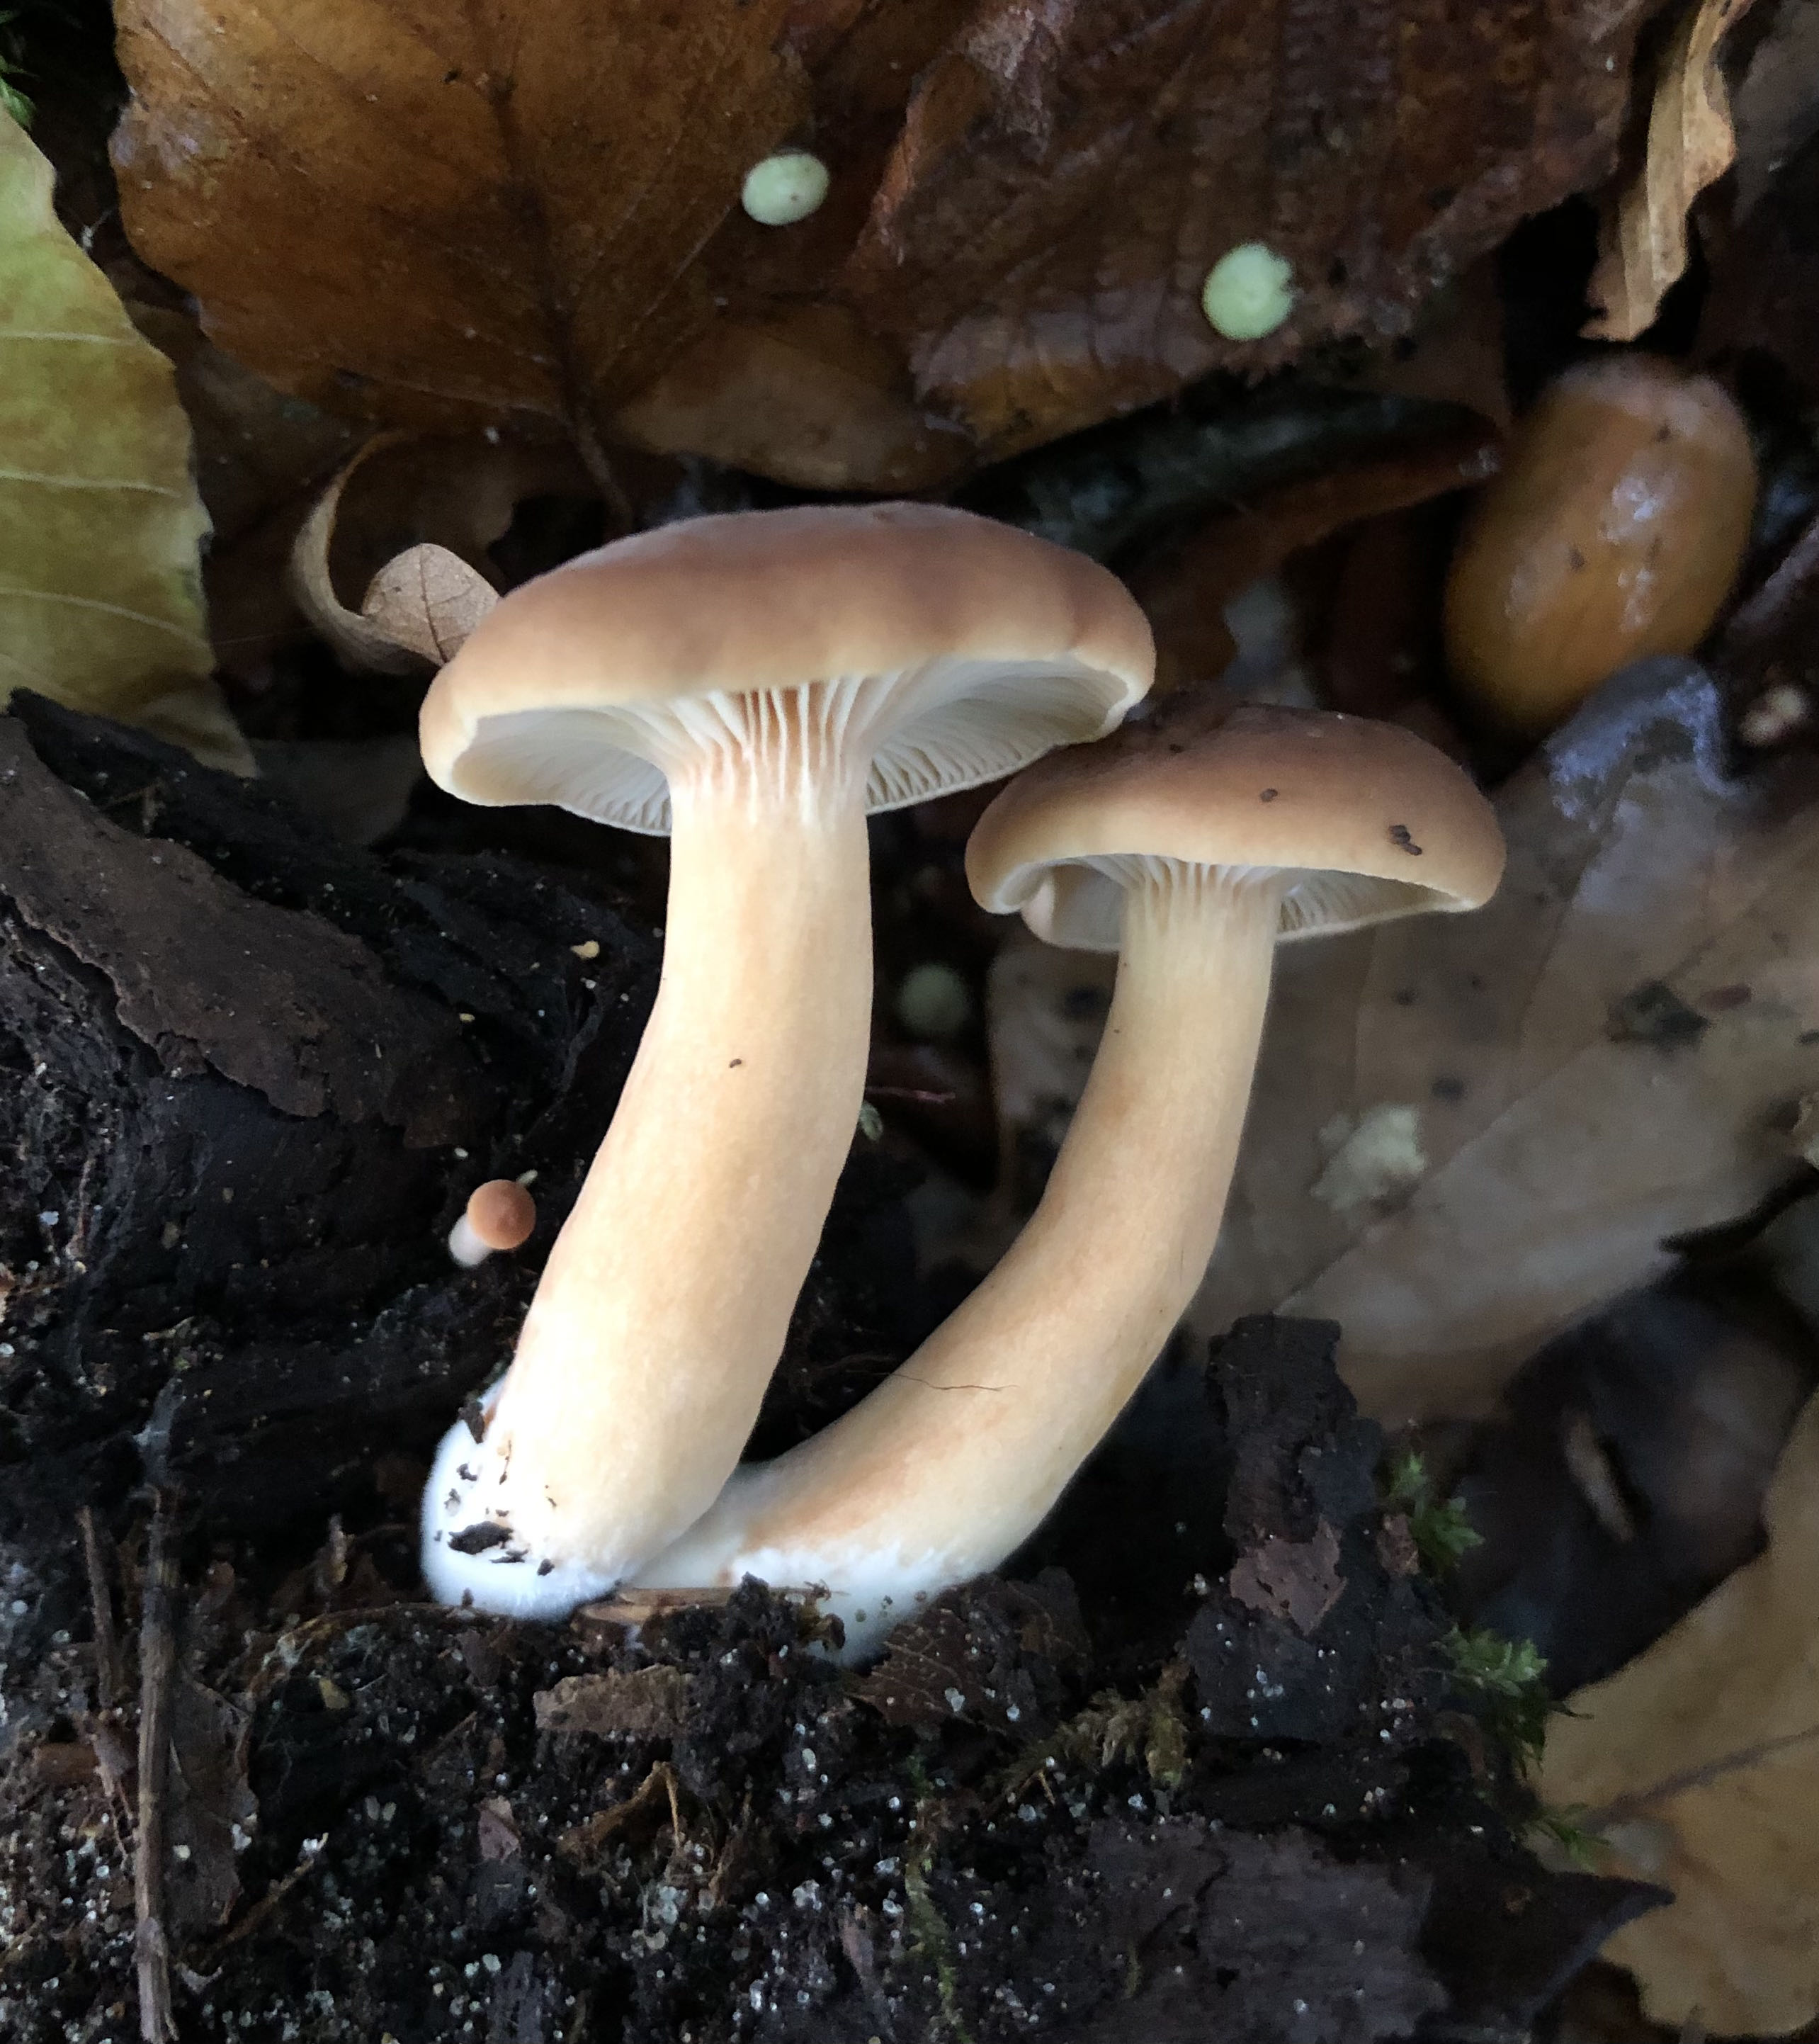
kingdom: Fungi
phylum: Basidiomycota
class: Agaricomycetes
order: Russulales
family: Russulaceae
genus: Lactarius
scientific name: Lactarius subdulcis
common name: sødlig mælkehat
